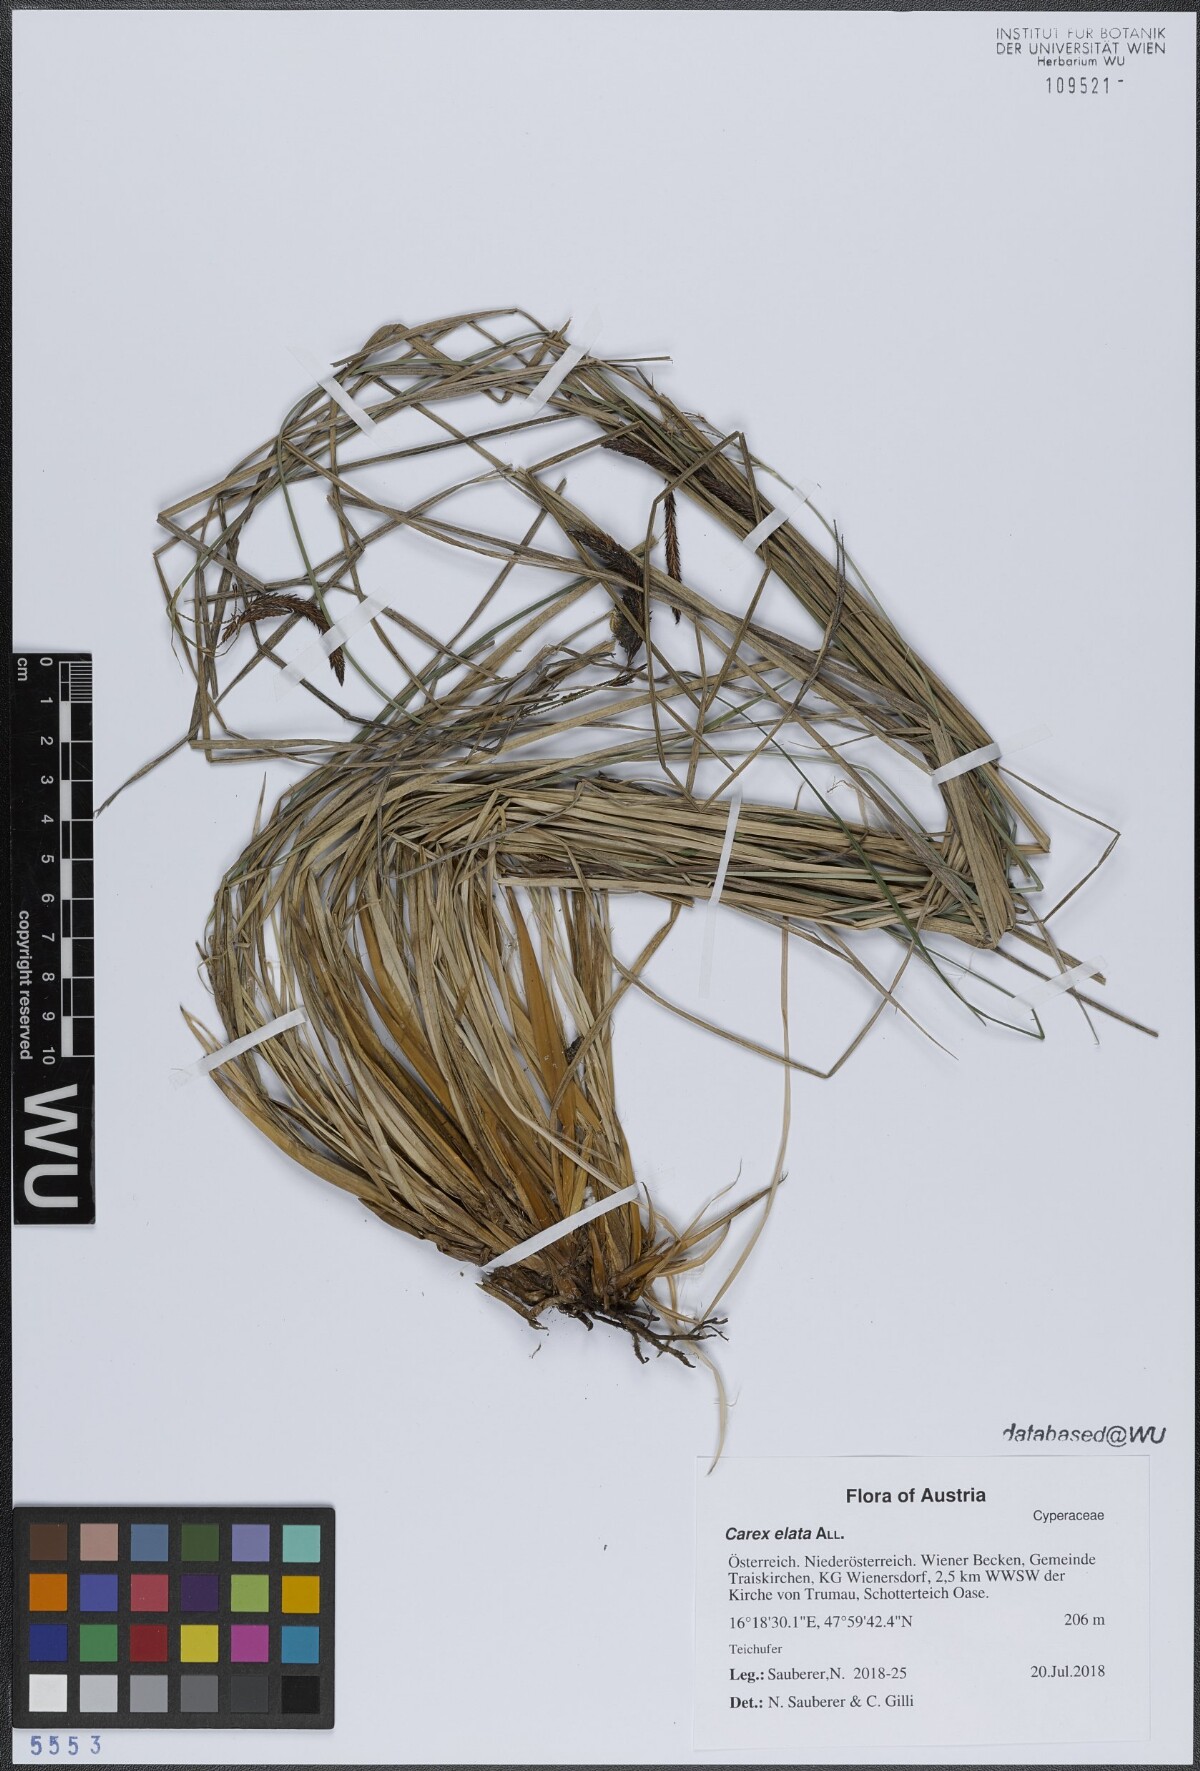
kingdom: Plantae
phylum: Tracheophyta
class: Liliopsida
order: Poales
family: Cyperaceae
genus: Carex
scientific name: Carex elata
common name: Tufted sedge
